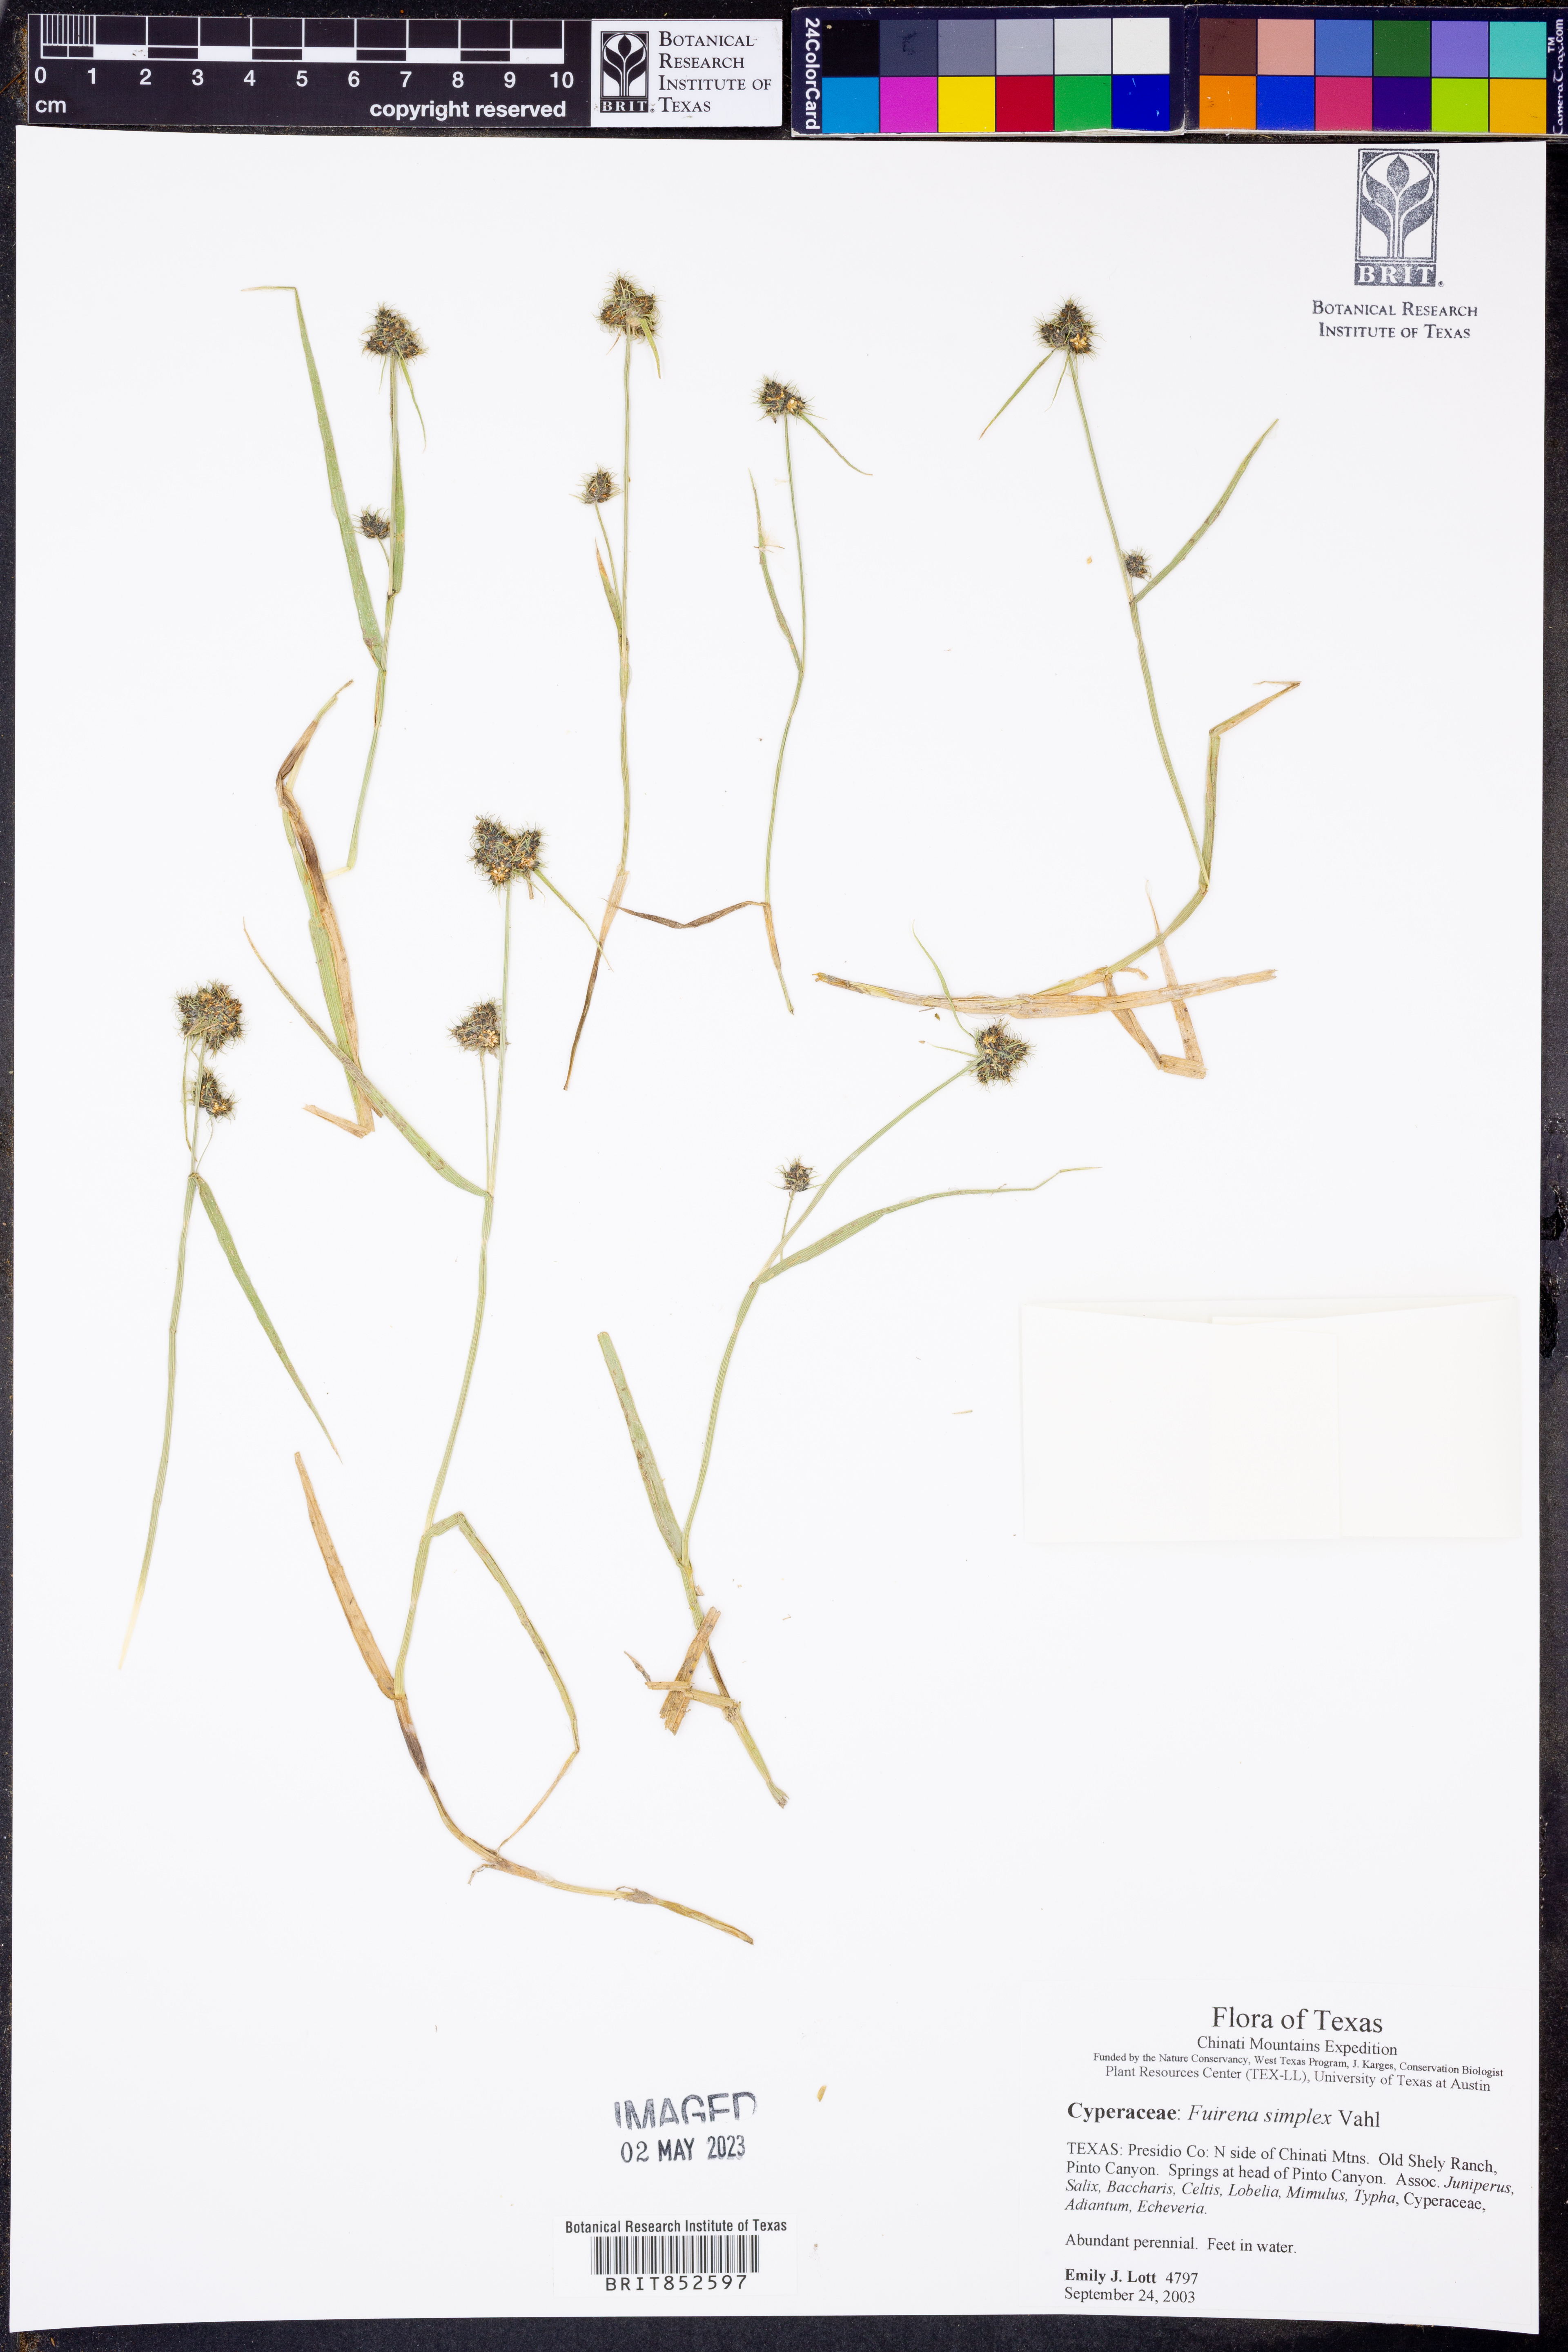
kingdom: Plantae
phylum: Tracheophyta
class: Liliopsida
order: Poales
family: Cyperaceae
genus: Fuirena
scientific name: Fuirena simplex
